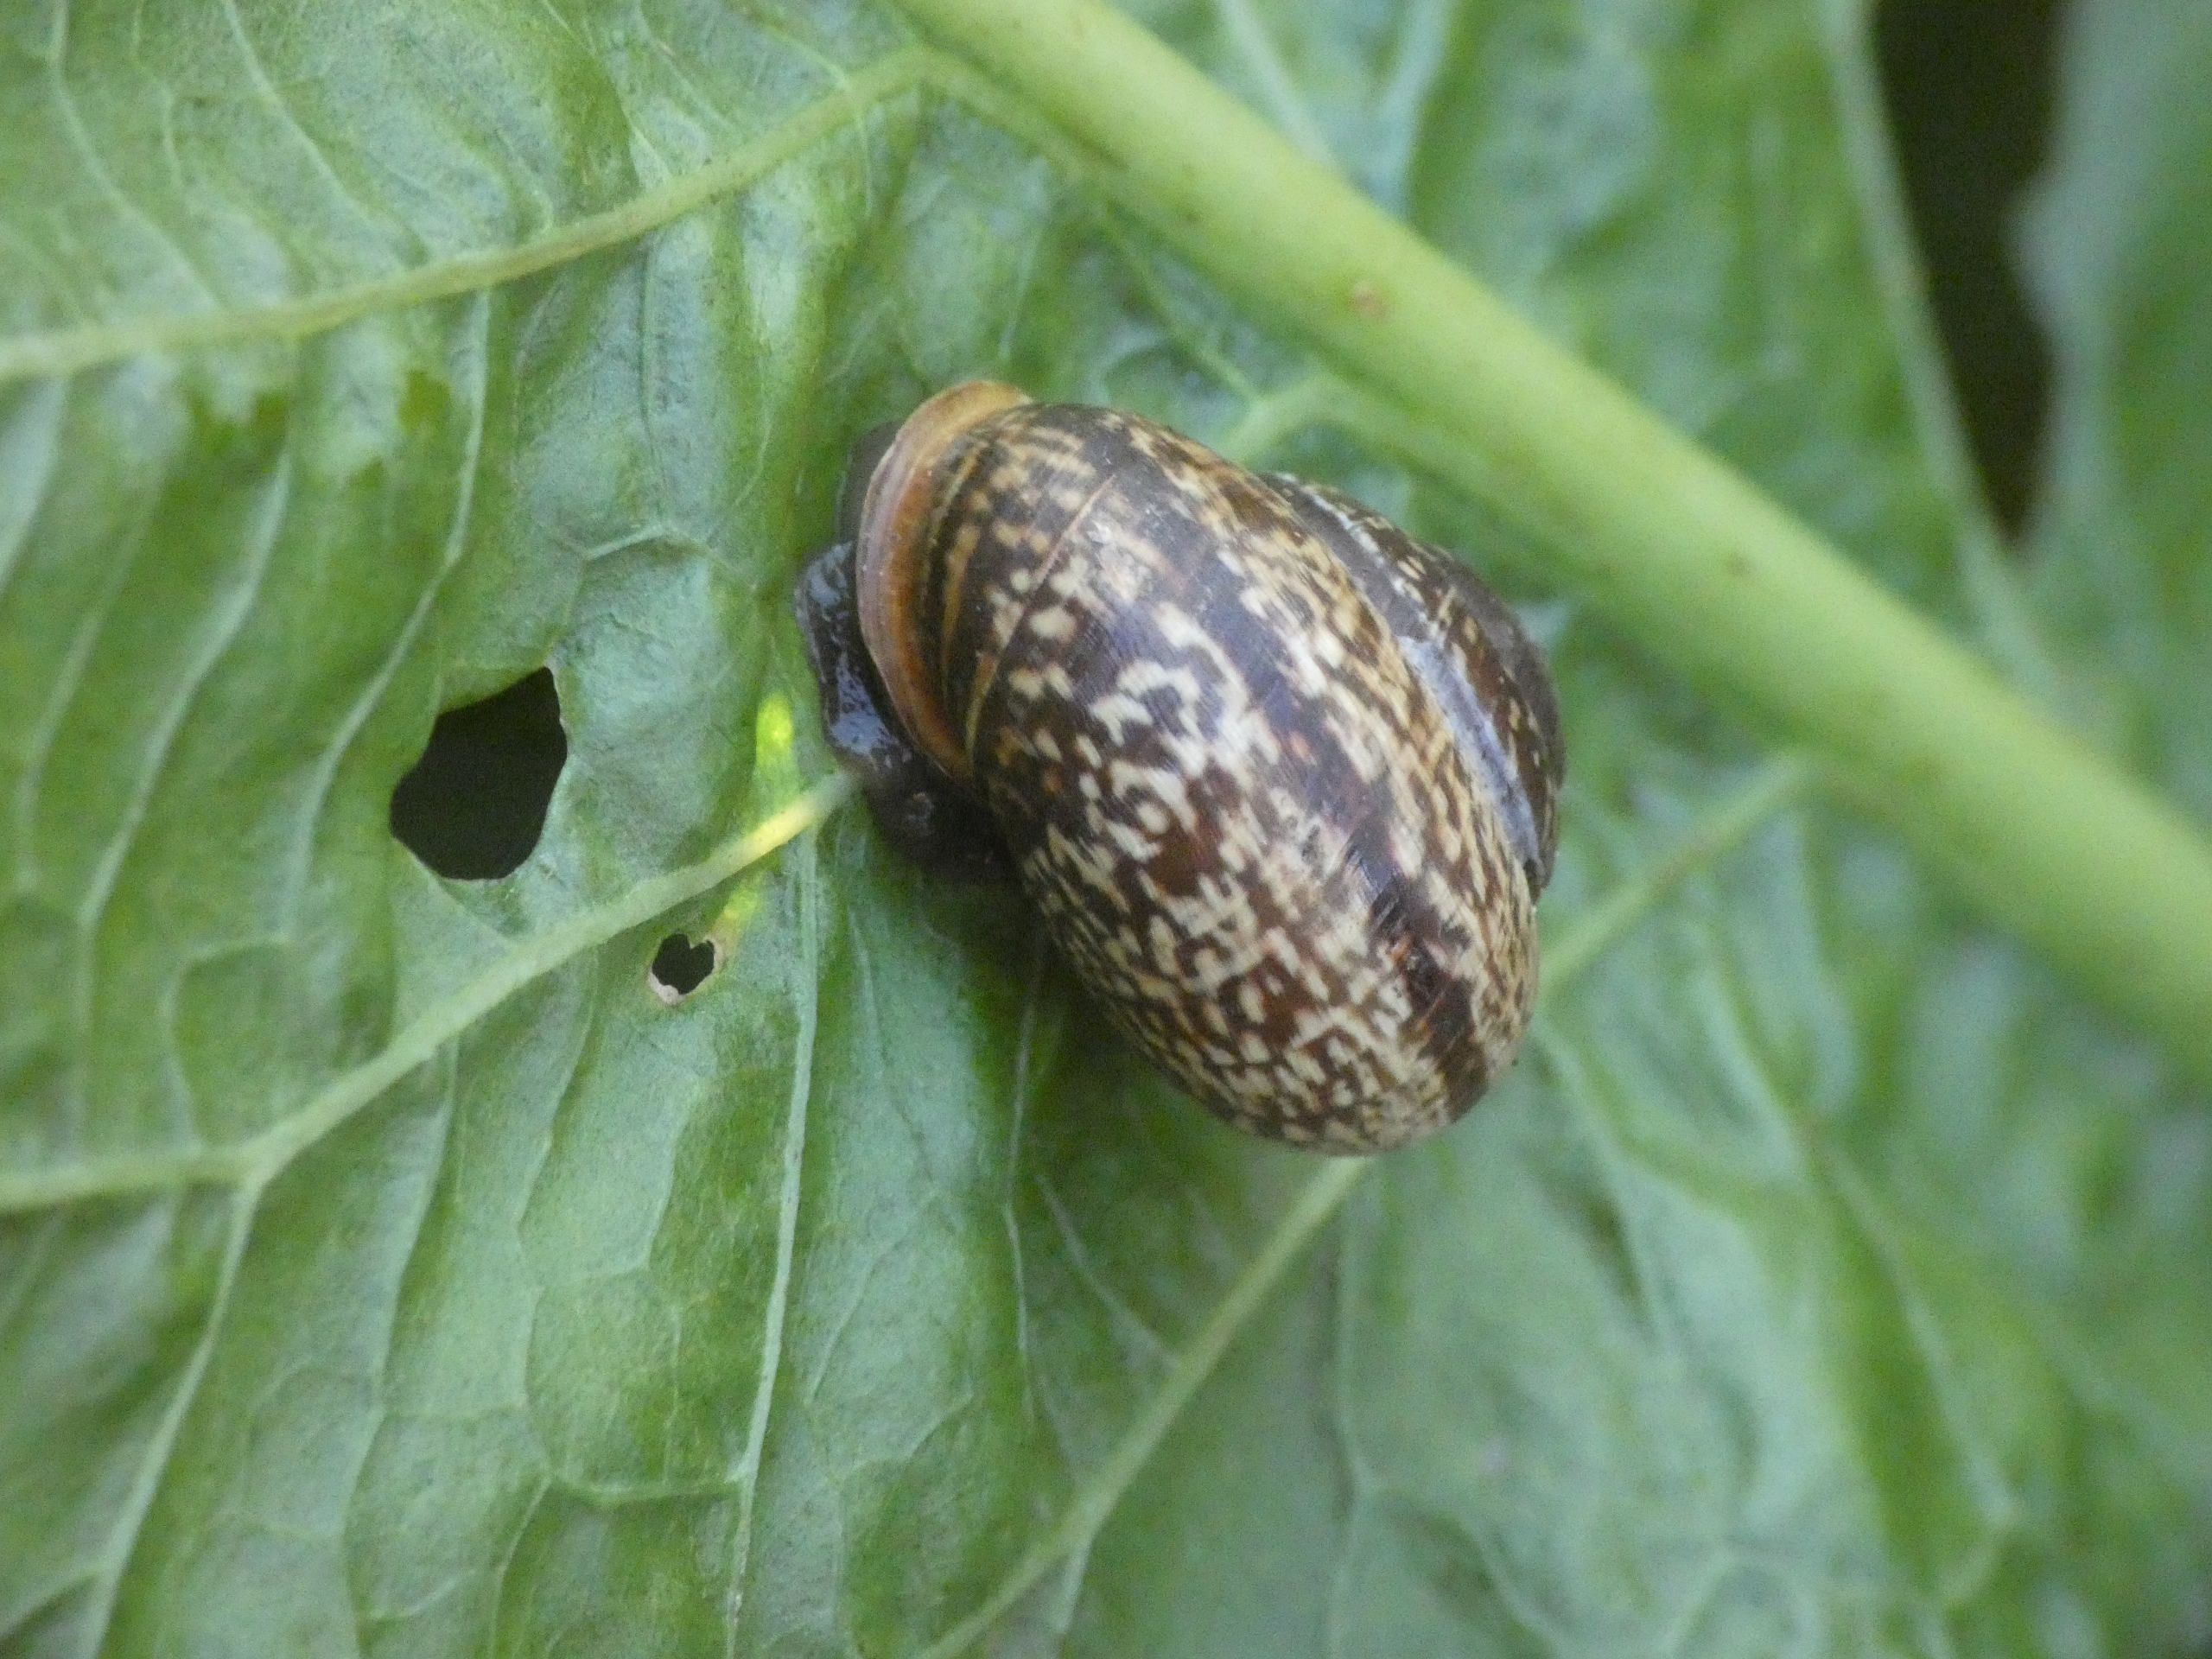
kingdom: Animalia
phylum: Mollusca
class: Gastropoda
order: Stylommatophora
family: Helicidae
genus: Arianta
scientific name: Arianta arbustorum
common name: Kratsnegl
